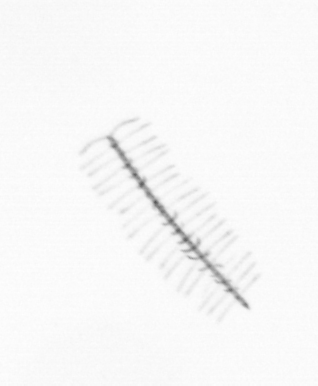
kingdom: Chromista
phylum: Ochrophyta
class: Bacillariophyceae
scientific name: Bacillariophyceae
